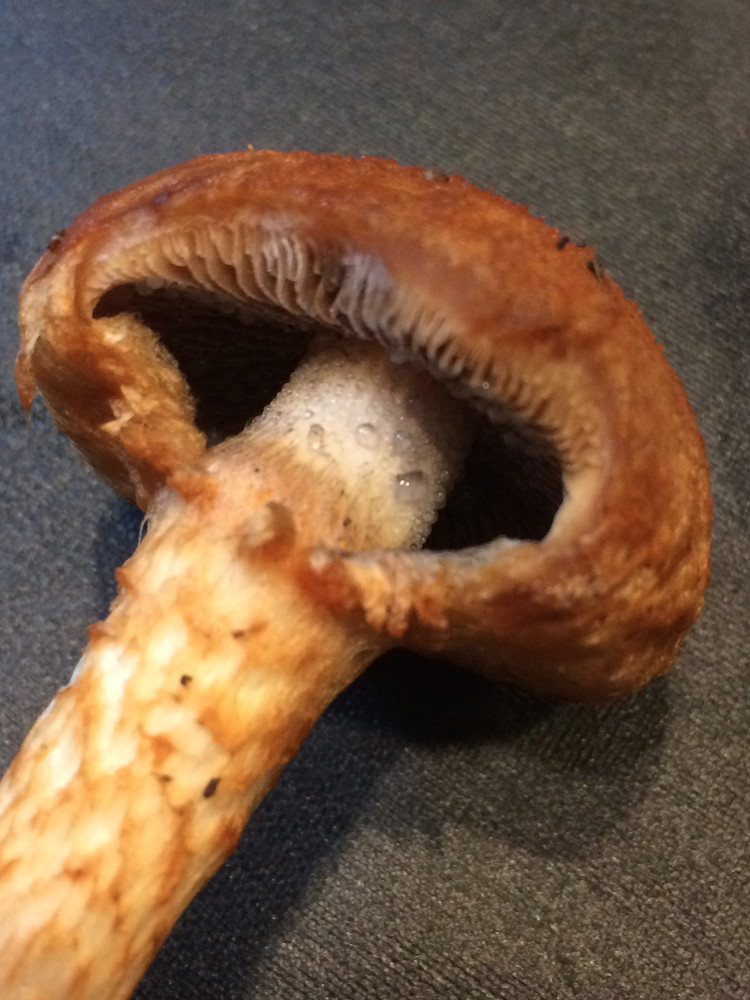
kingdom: Fungi
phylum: Basidiomycota
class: Agaricomycetes
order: Agaricales
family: Psathyrellaceae
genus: Lacrymaria
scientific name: Lacrymaria pyrotricha
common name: ildhåret mørkhat
